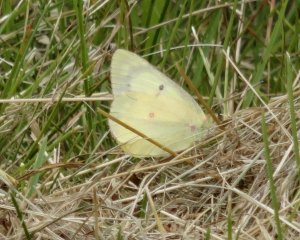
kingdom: Animalia
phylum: Arthropoda
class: Insecta
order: Lepidoptera
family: Pieridae
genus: Colias
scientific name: Colias eurytheme
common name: Orange Sulphur
